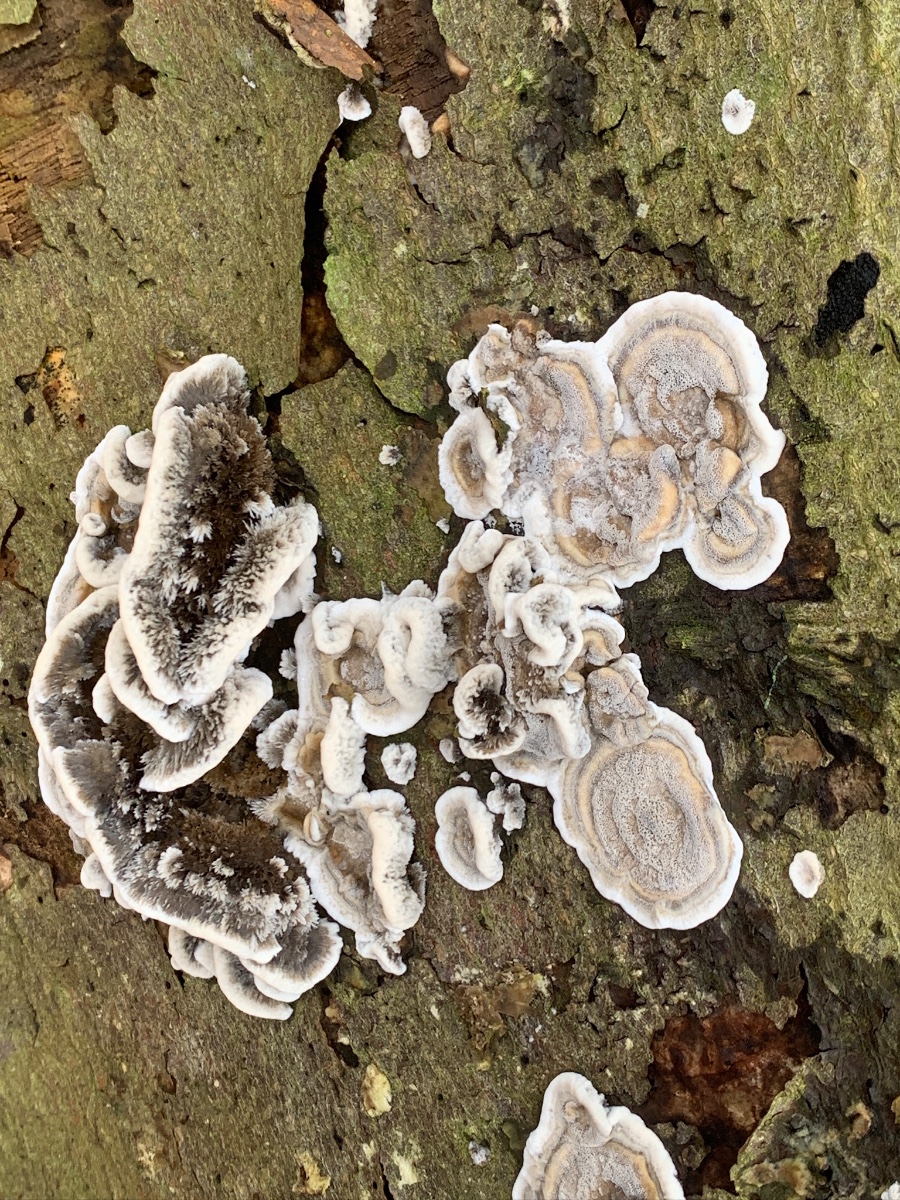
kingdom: Fungi
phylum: Basidiomycota
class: Agaricomycetes
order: Polyporales
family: Phanerochaetaceae
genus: Bjerkandera
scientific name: Bjerkandera adusta
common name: sveden sodporesvamp
